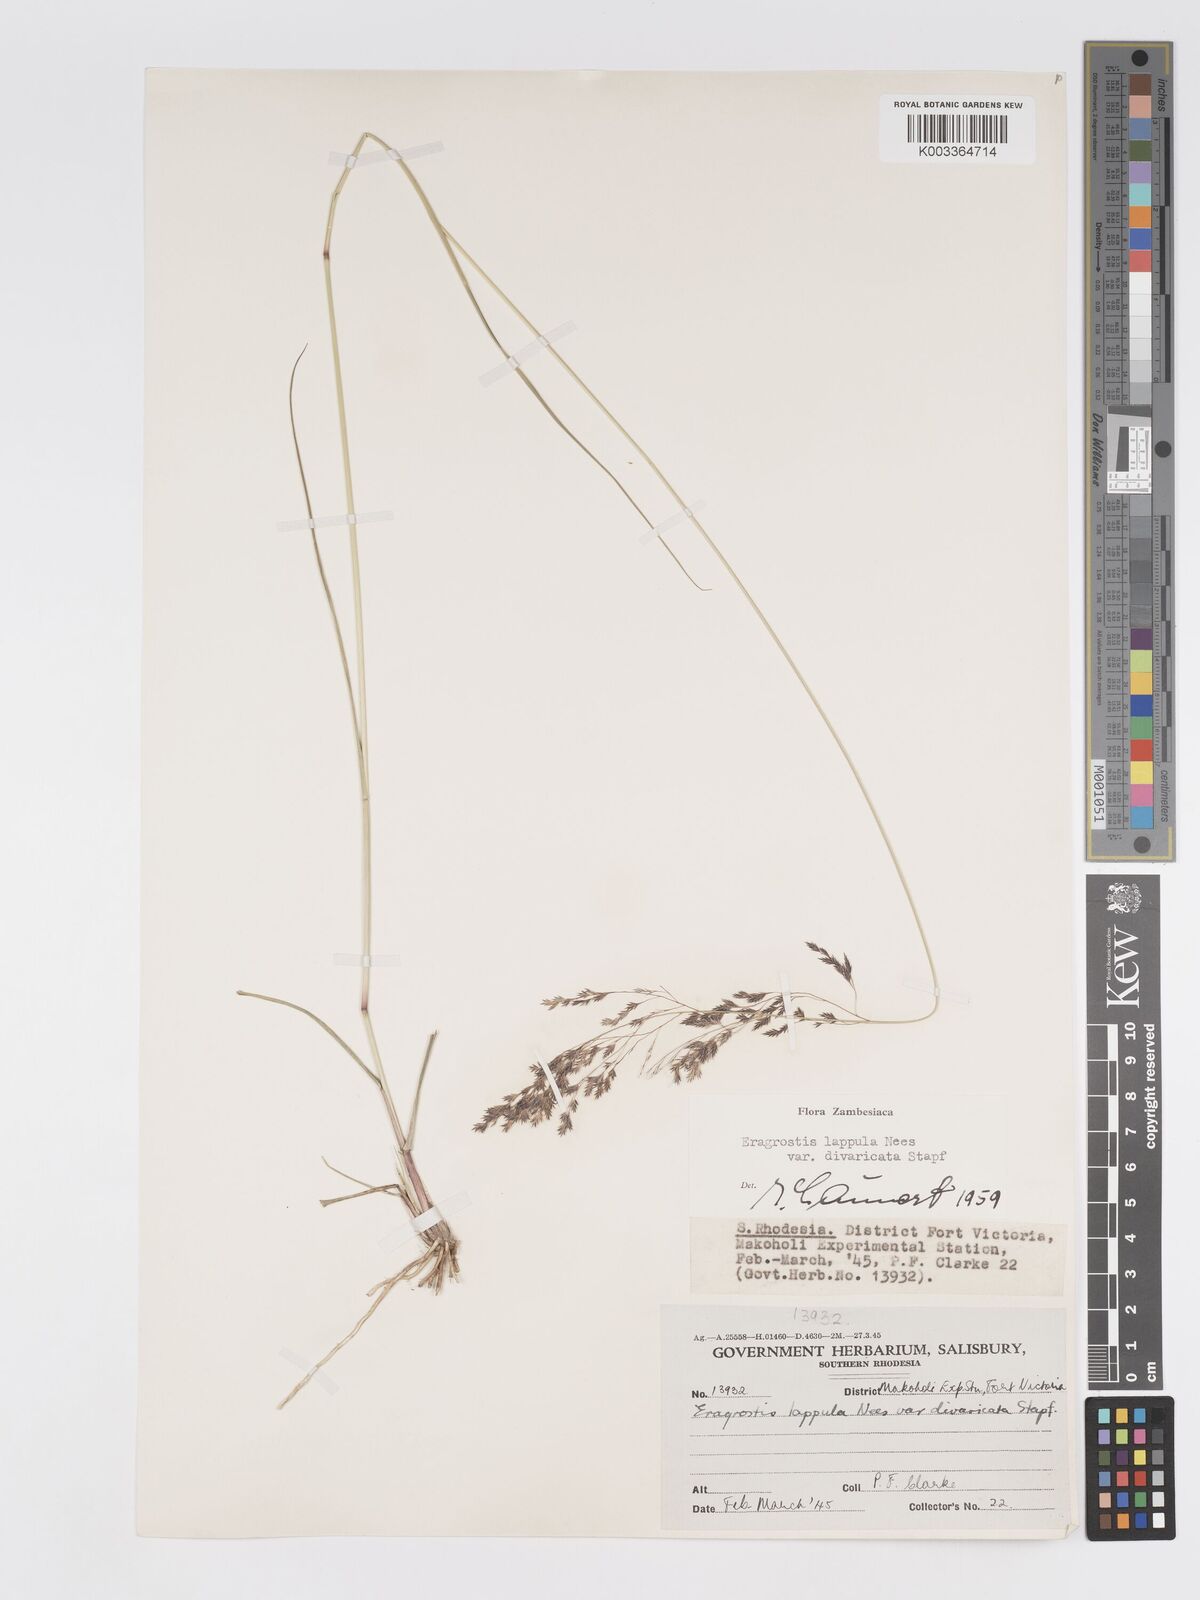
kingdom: Plantae
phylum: Tracheophyta
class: Liliopsida
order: Poales
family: Poaceae
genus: Eragrostis
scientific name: Eragrostis lappula
